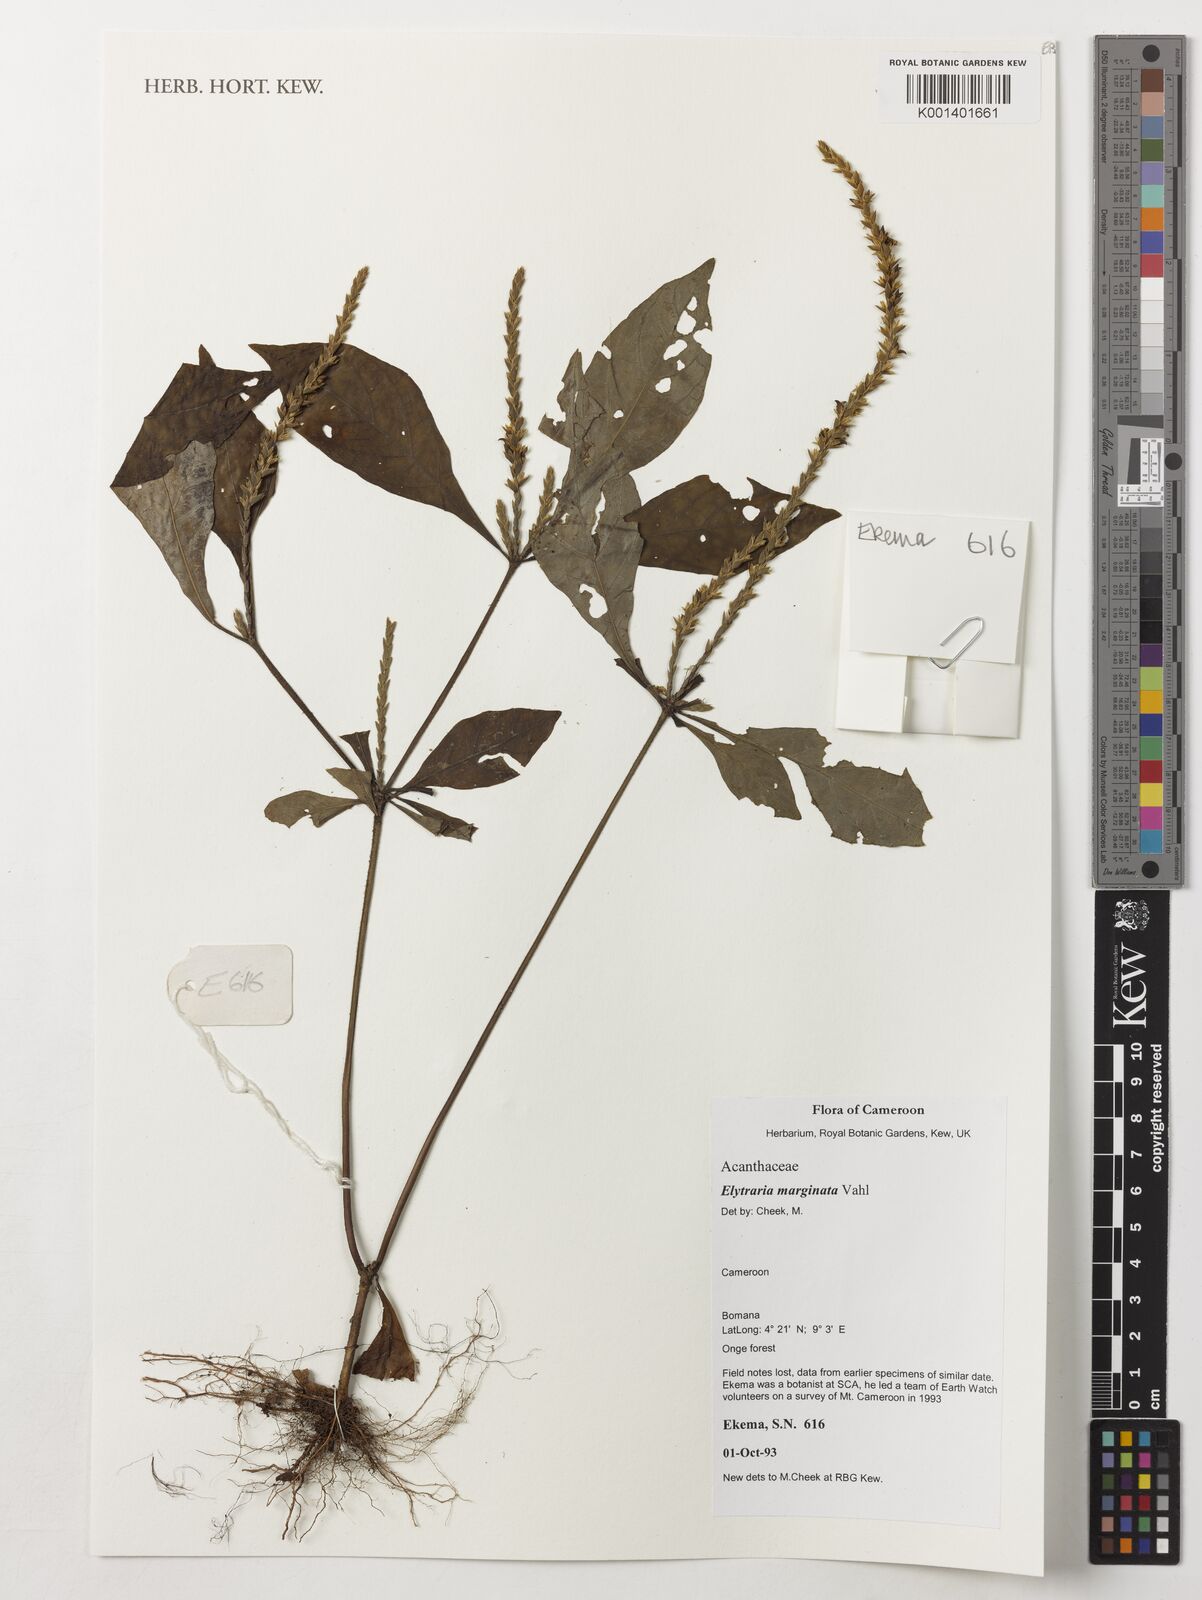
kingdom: Plantae
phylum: Tracheophyta
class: Magnoliopsida
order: Lamiales
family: Acanthaceae
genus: Elytraria
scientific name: Elytraria marginata
